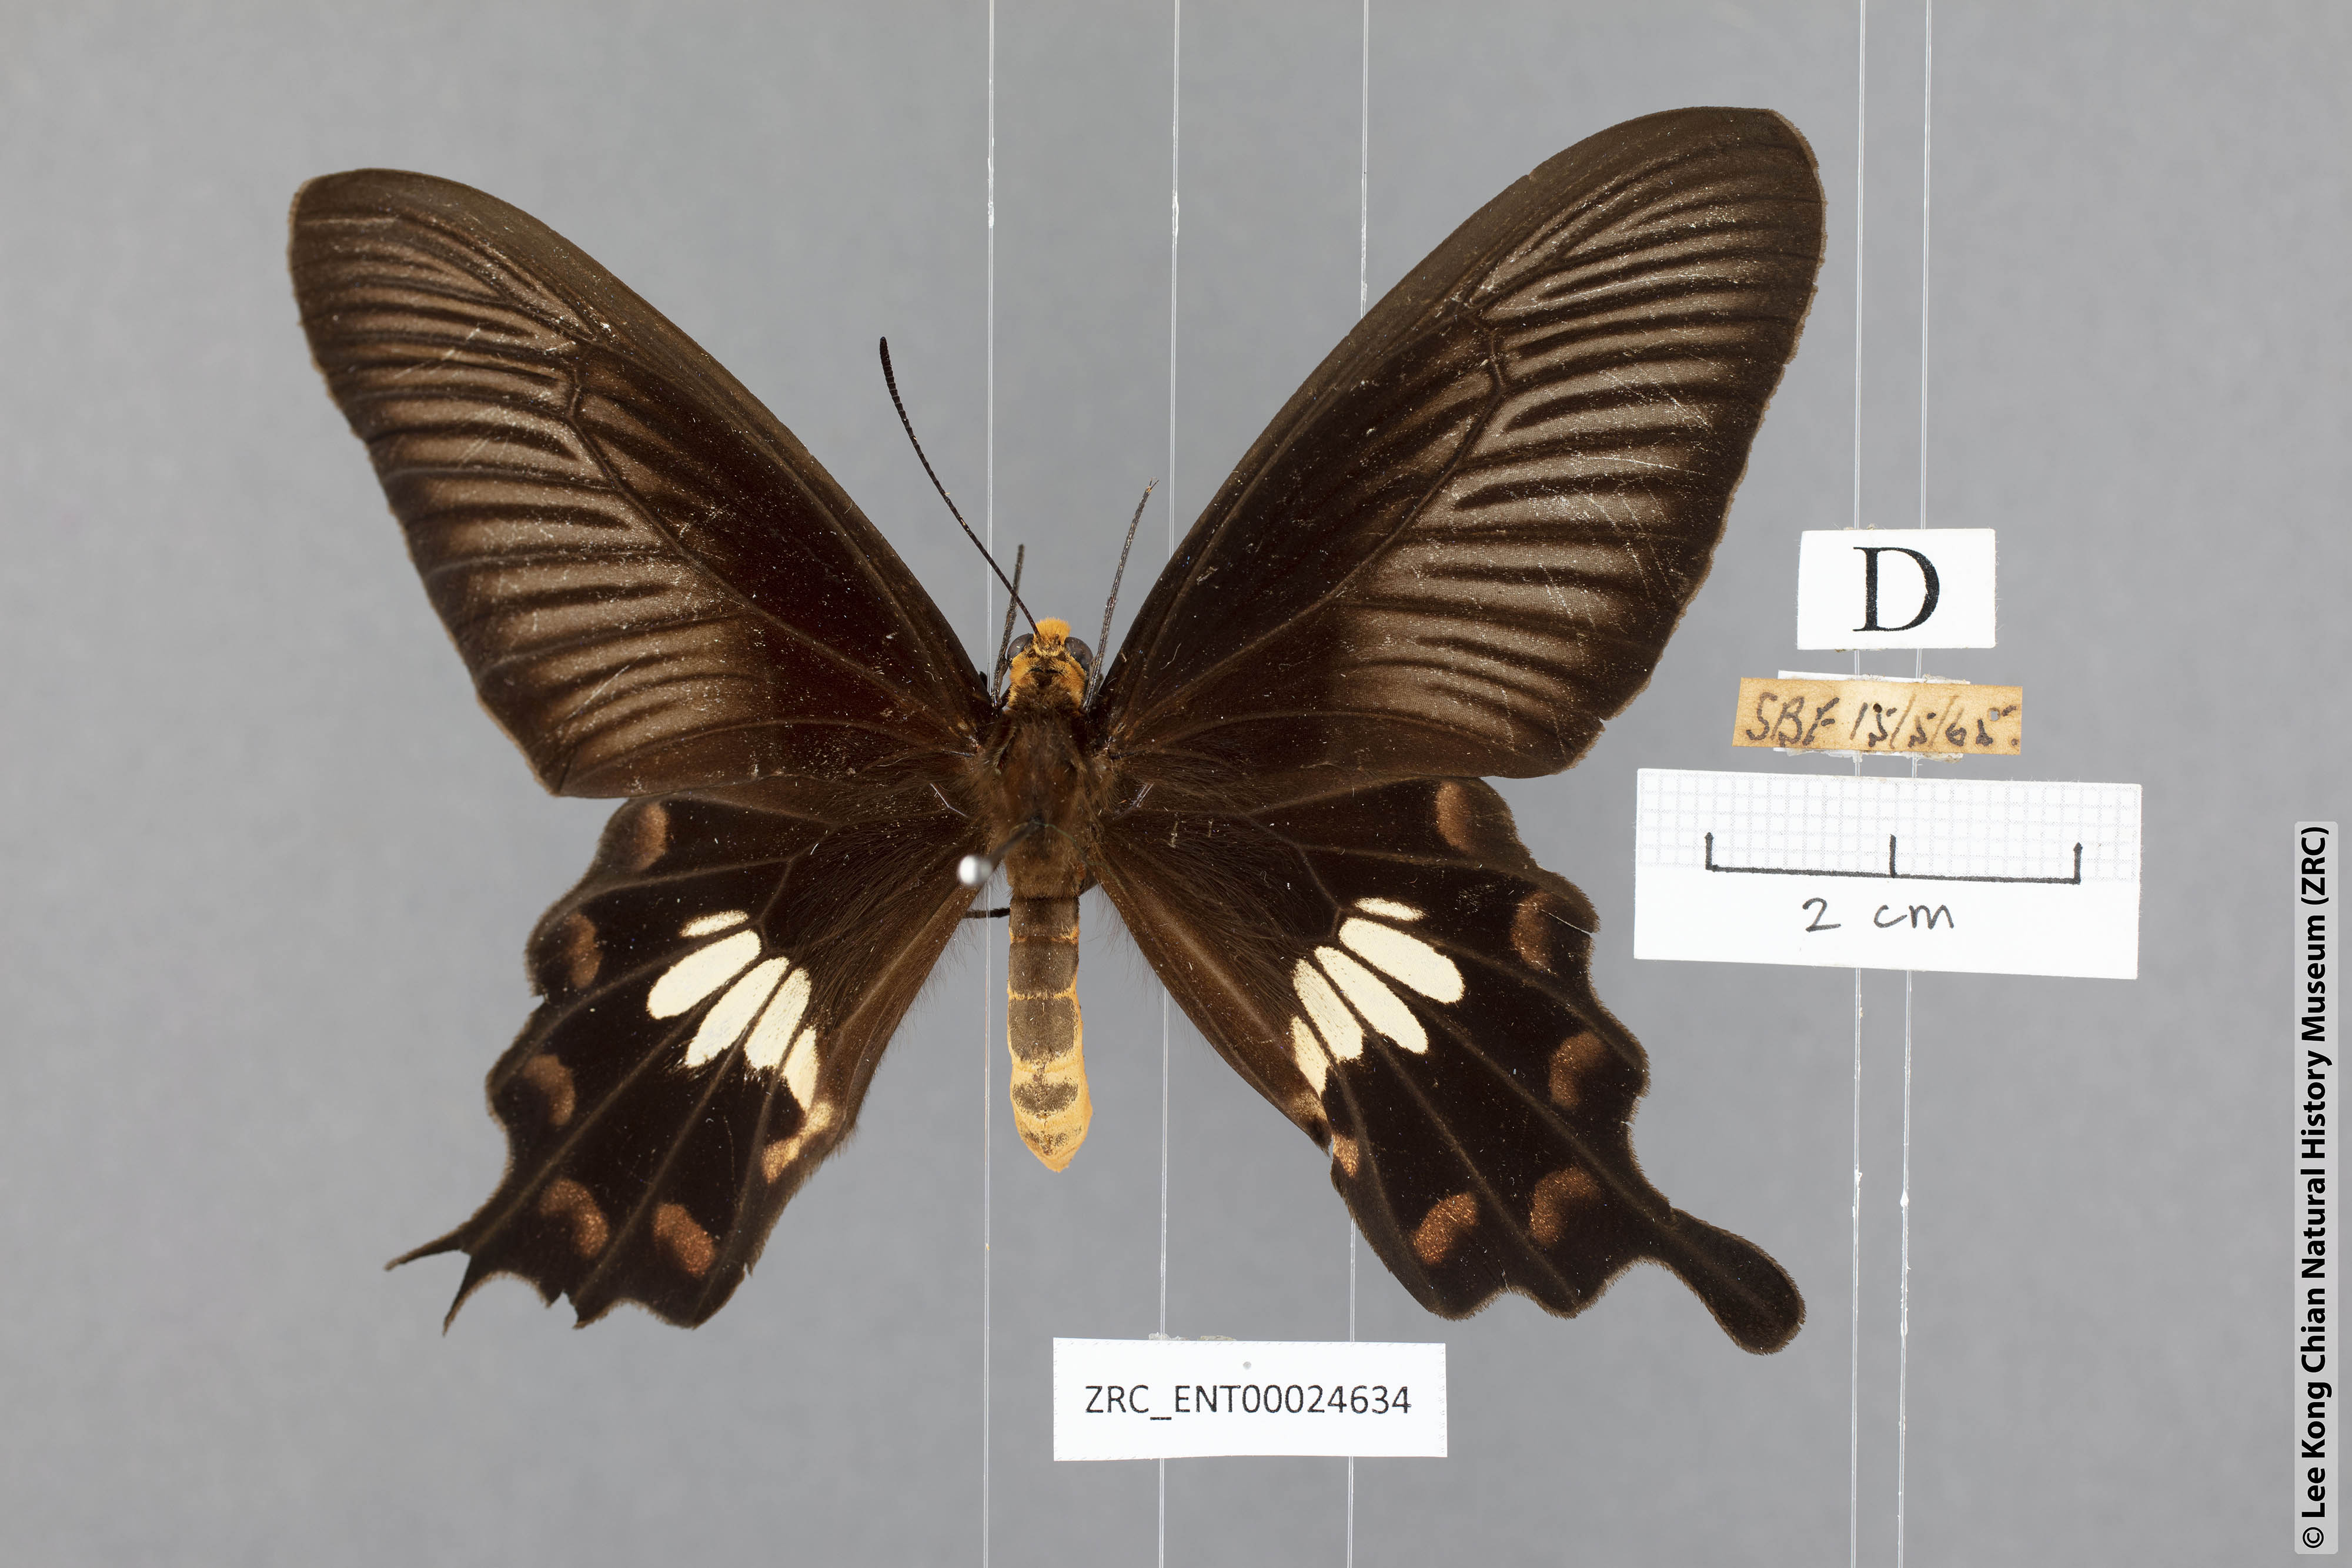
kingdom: Animalia
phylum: Arthropoda
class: Insecta
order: Lepidoptera
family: Papilionidae
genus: Pachliopta
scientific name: Pachliopta aristolochiae
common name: Common rose
